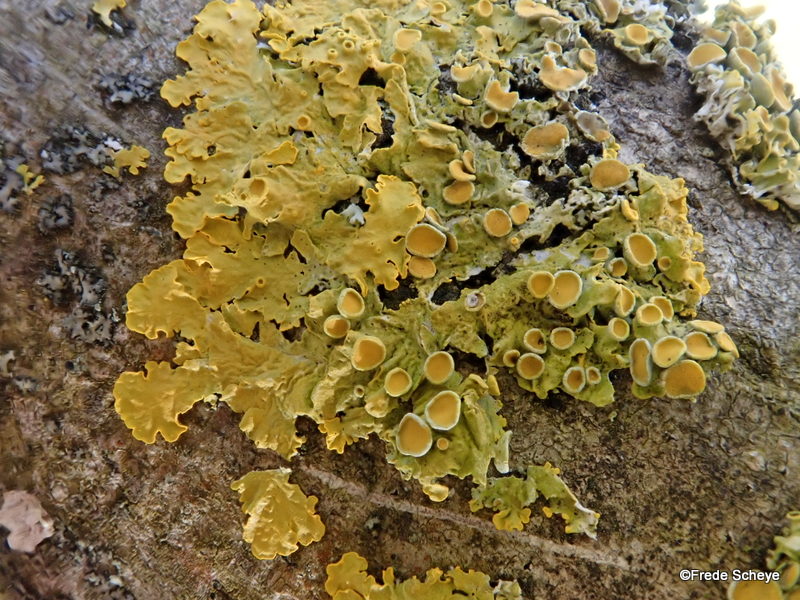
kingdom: Fungi
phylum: Ascomycota
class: Lecanoromycetes
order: Teloschistales
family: Teloschistaceae
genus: Xanthoria
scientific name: Xanthoria parietina
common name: almindelig væggelav
